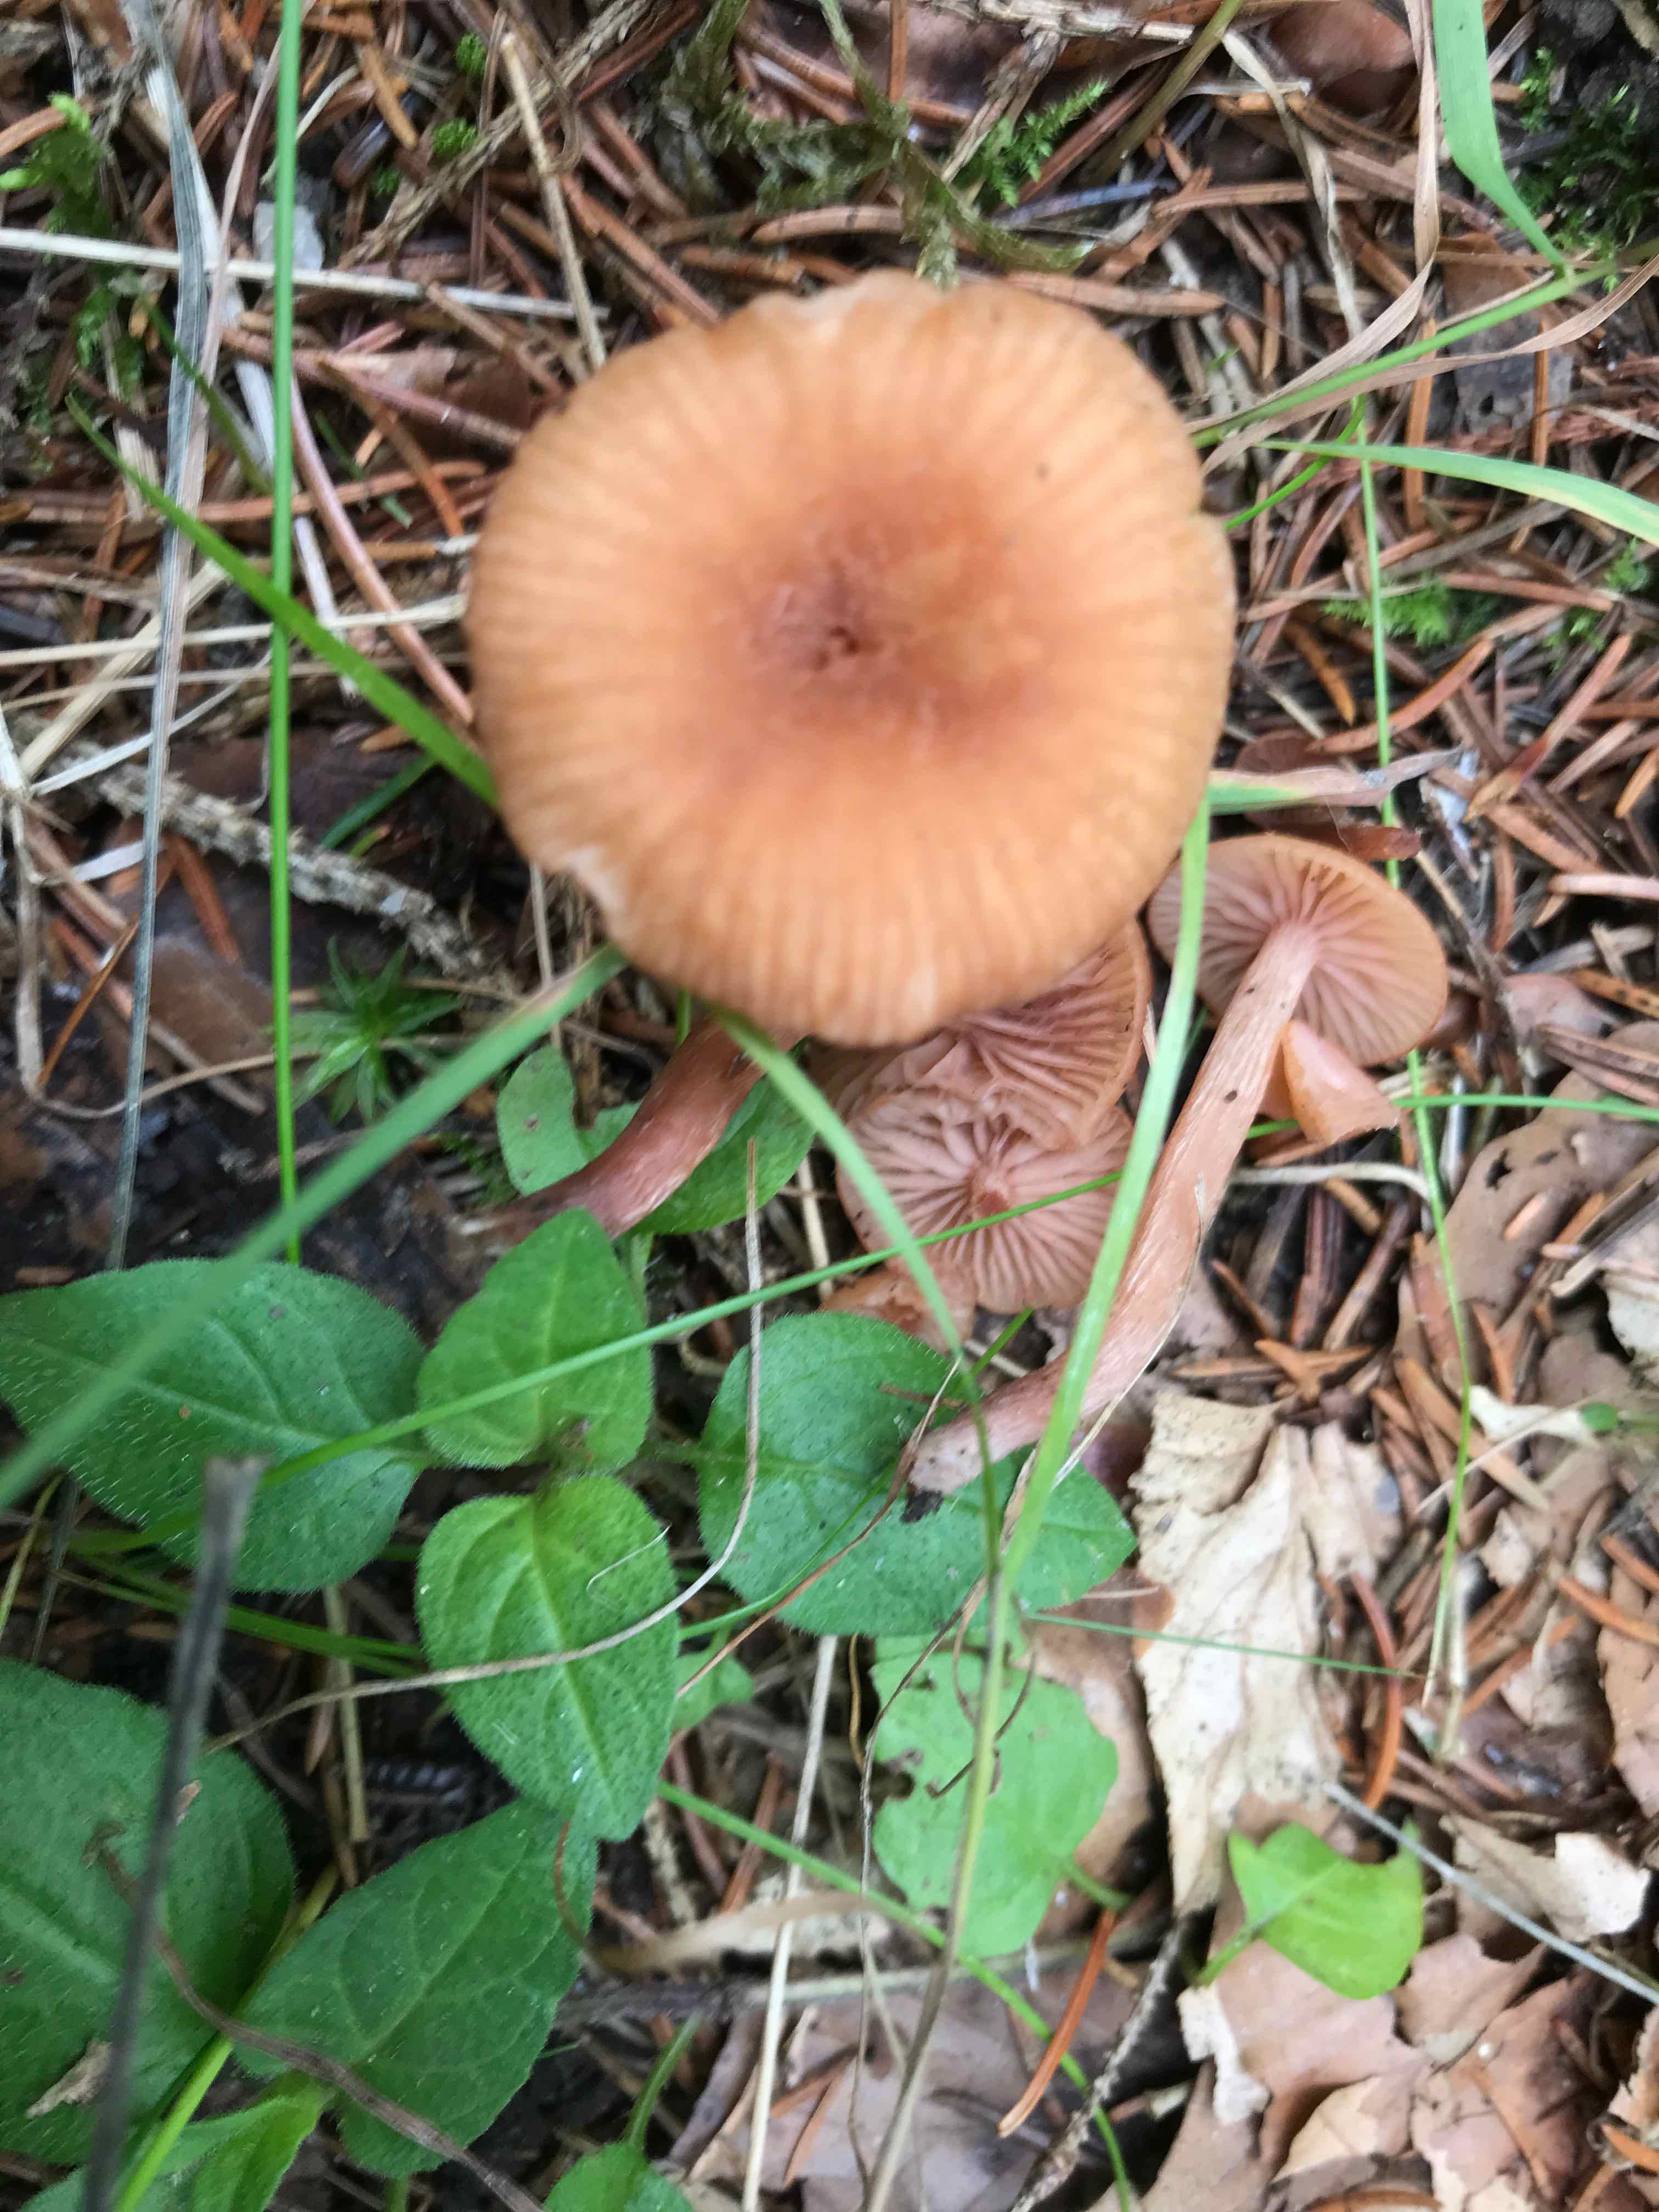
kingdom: Fungi
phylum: Basidiomycota
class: Agaricomycetes
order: Agaricales
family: Hydnangiaceae
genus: Laccaria
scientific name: Laccaria laccata
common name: rød ametysthat
